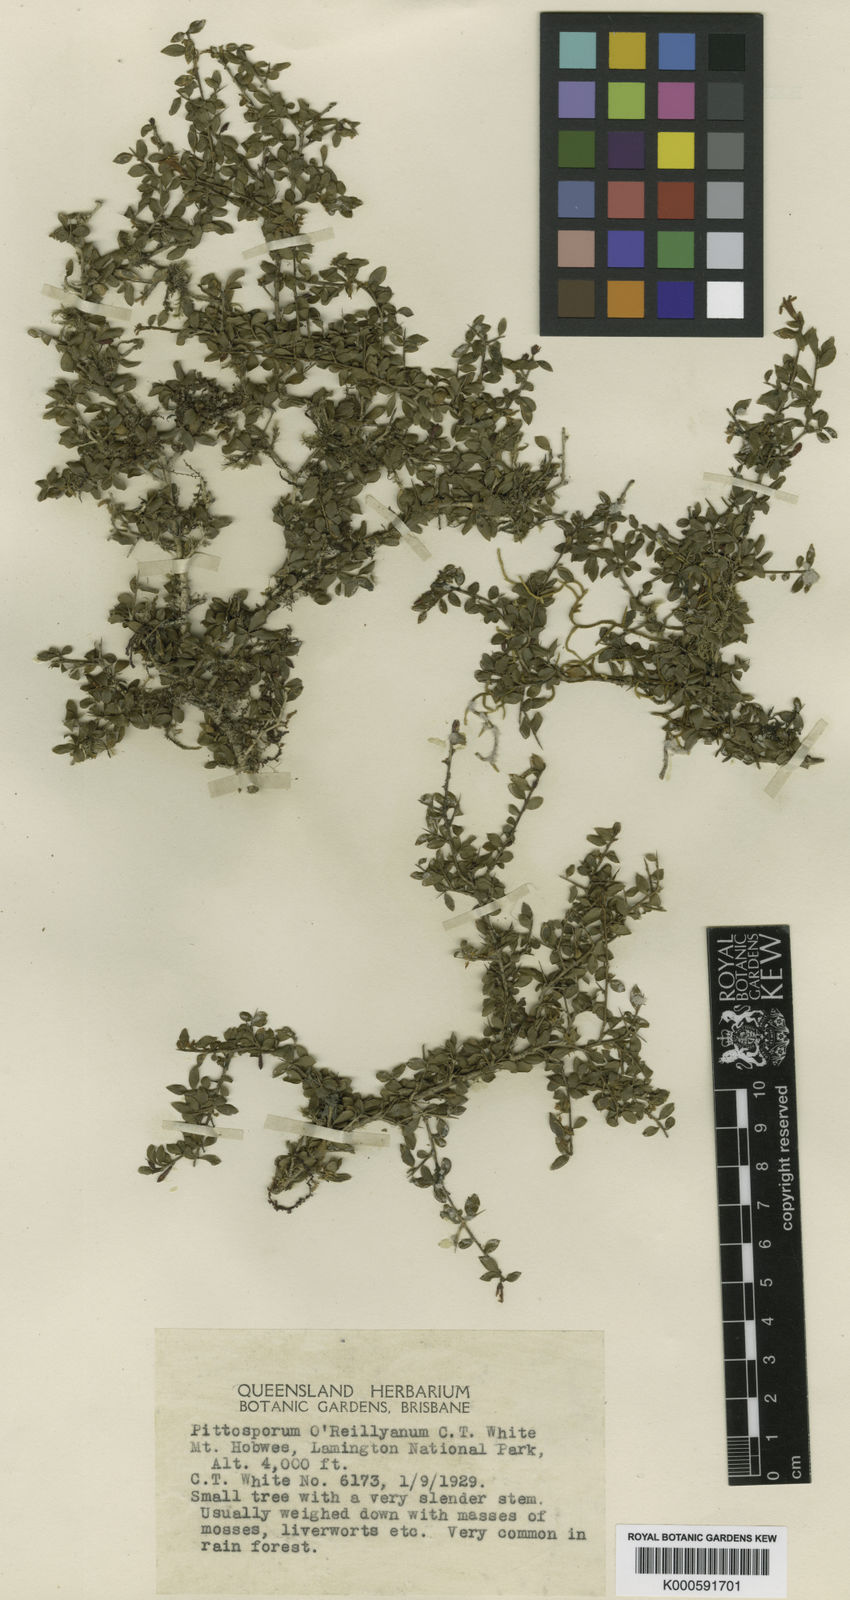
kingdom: Plantae
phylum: Tracheophyta
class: Magnoliopsida
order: Apiales
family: Pittosporaceae
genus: Pittosporum
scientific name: Pittosporum
